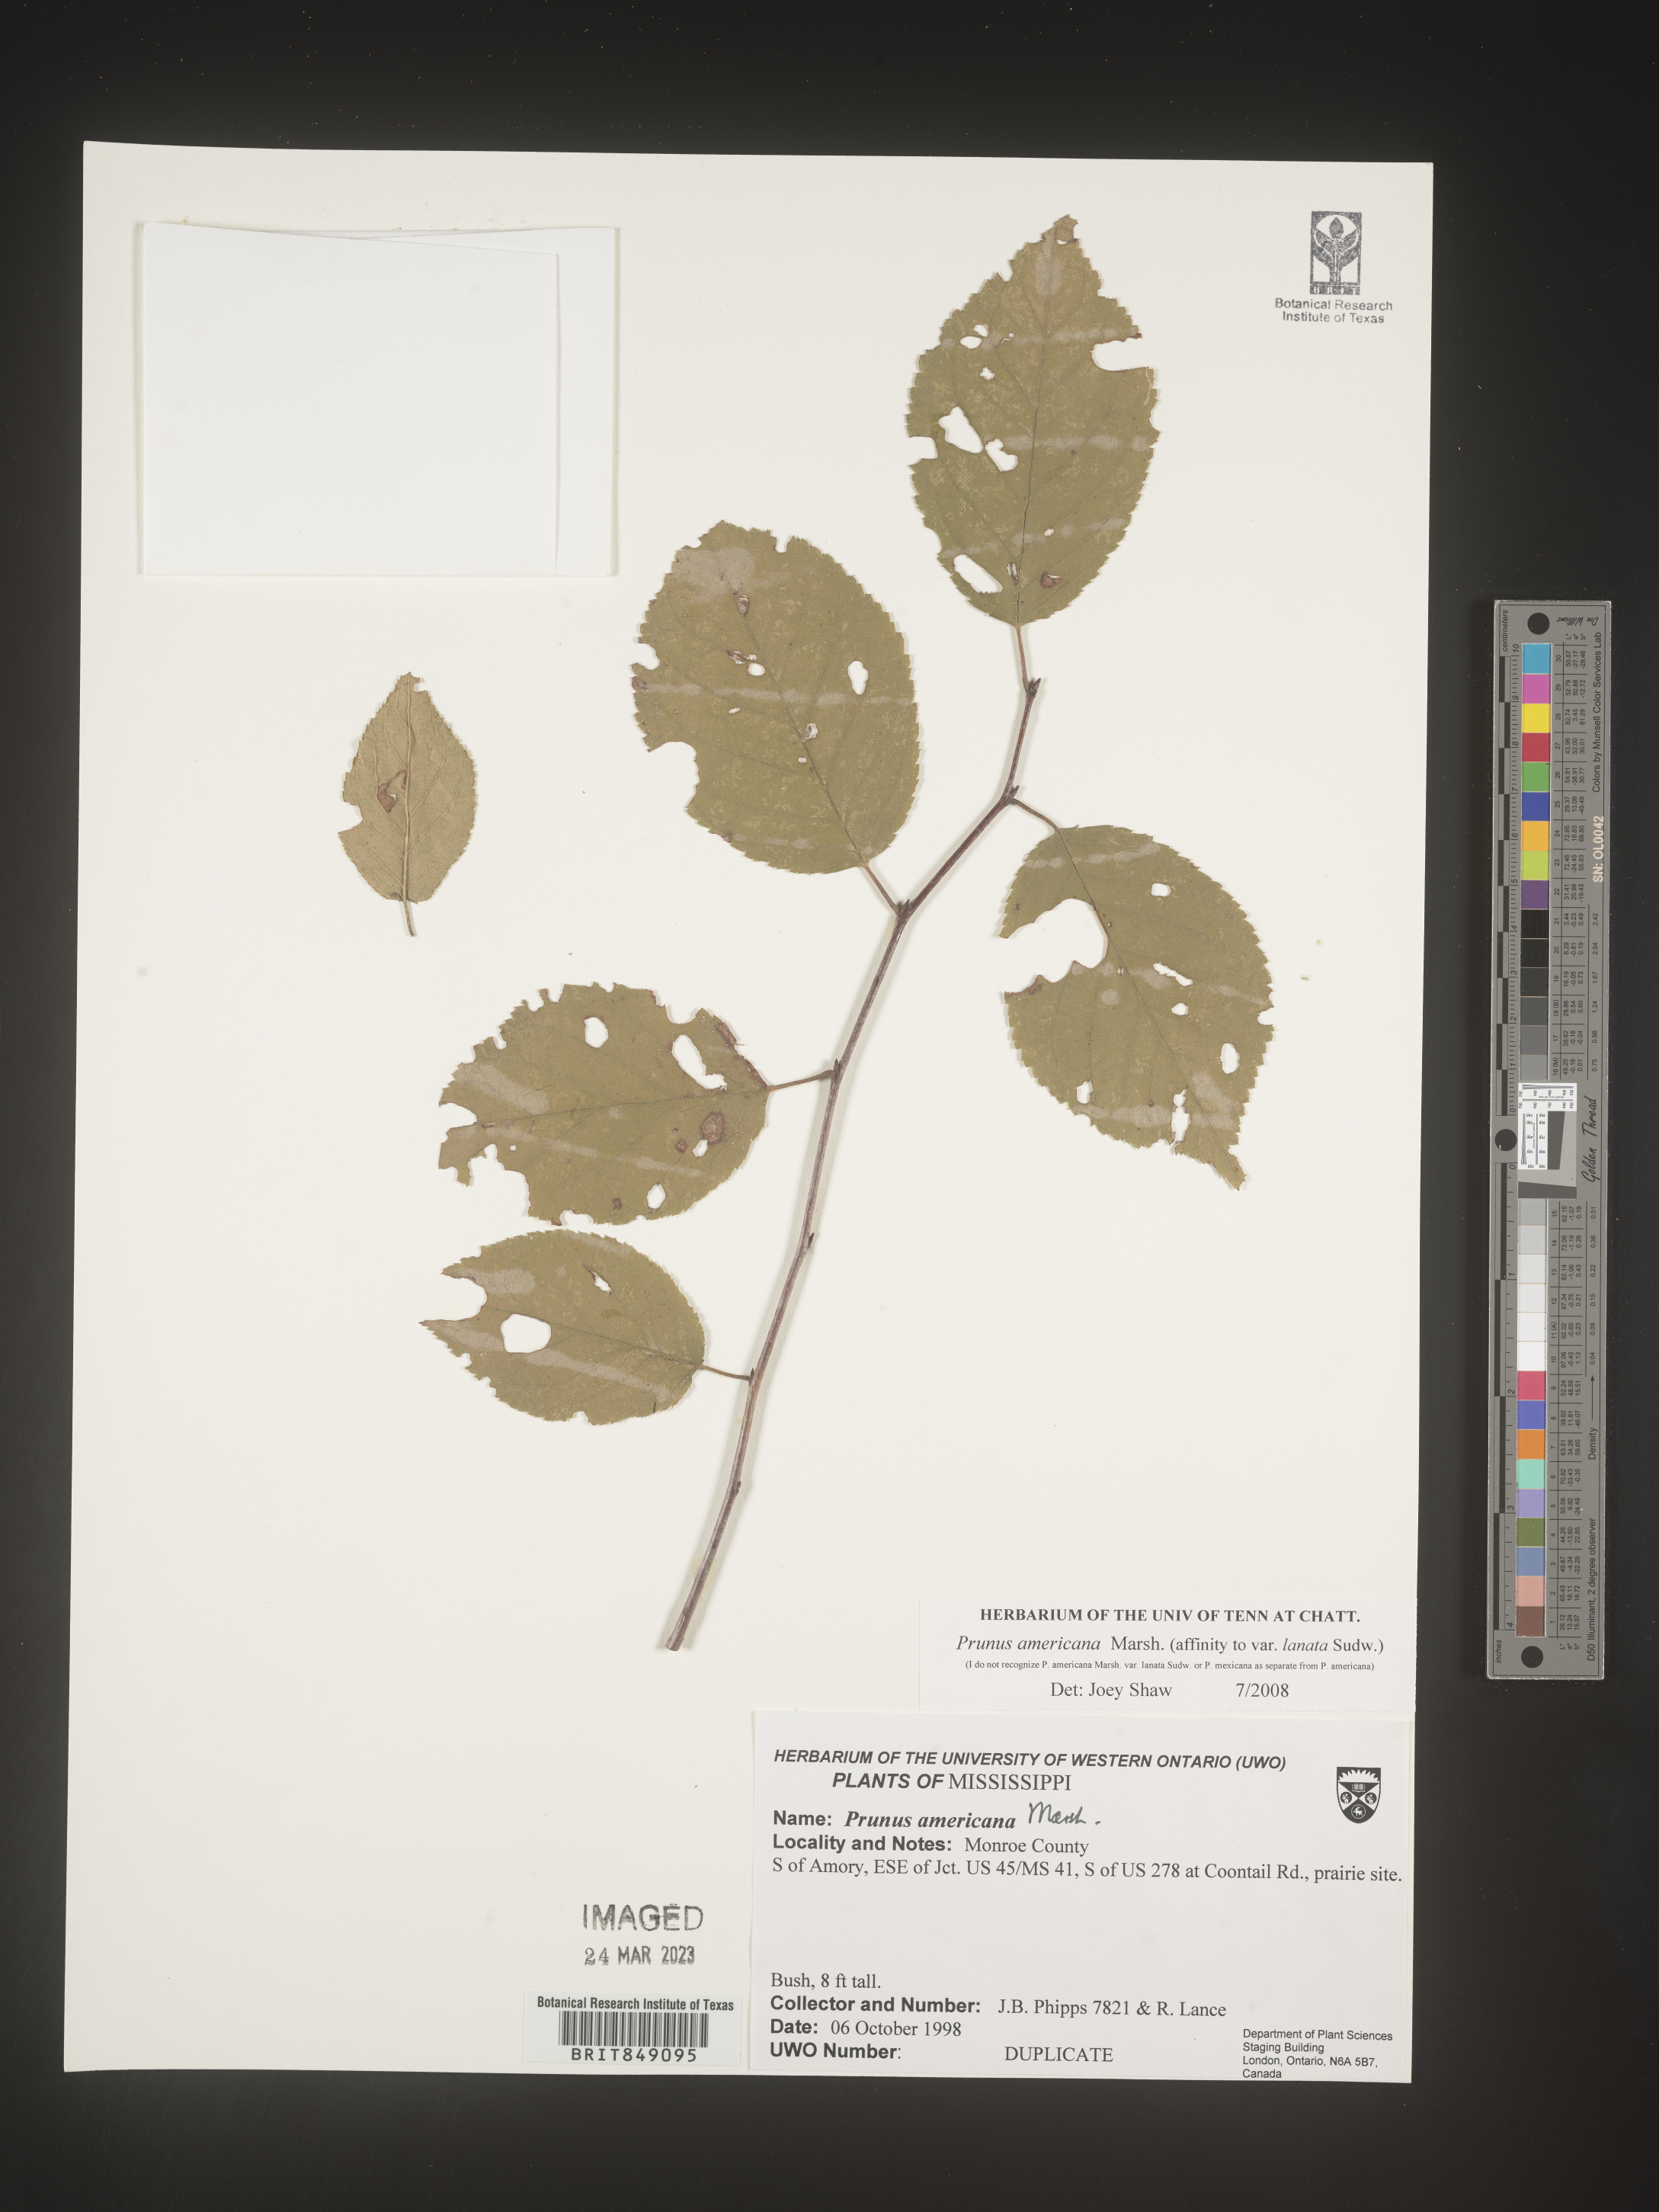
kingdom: Plantae
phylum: Tracheophyta
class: Magnoliopsida
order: Rosales
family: Rosaceae
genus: Prunus
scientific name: Prunus americana
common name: American plum
